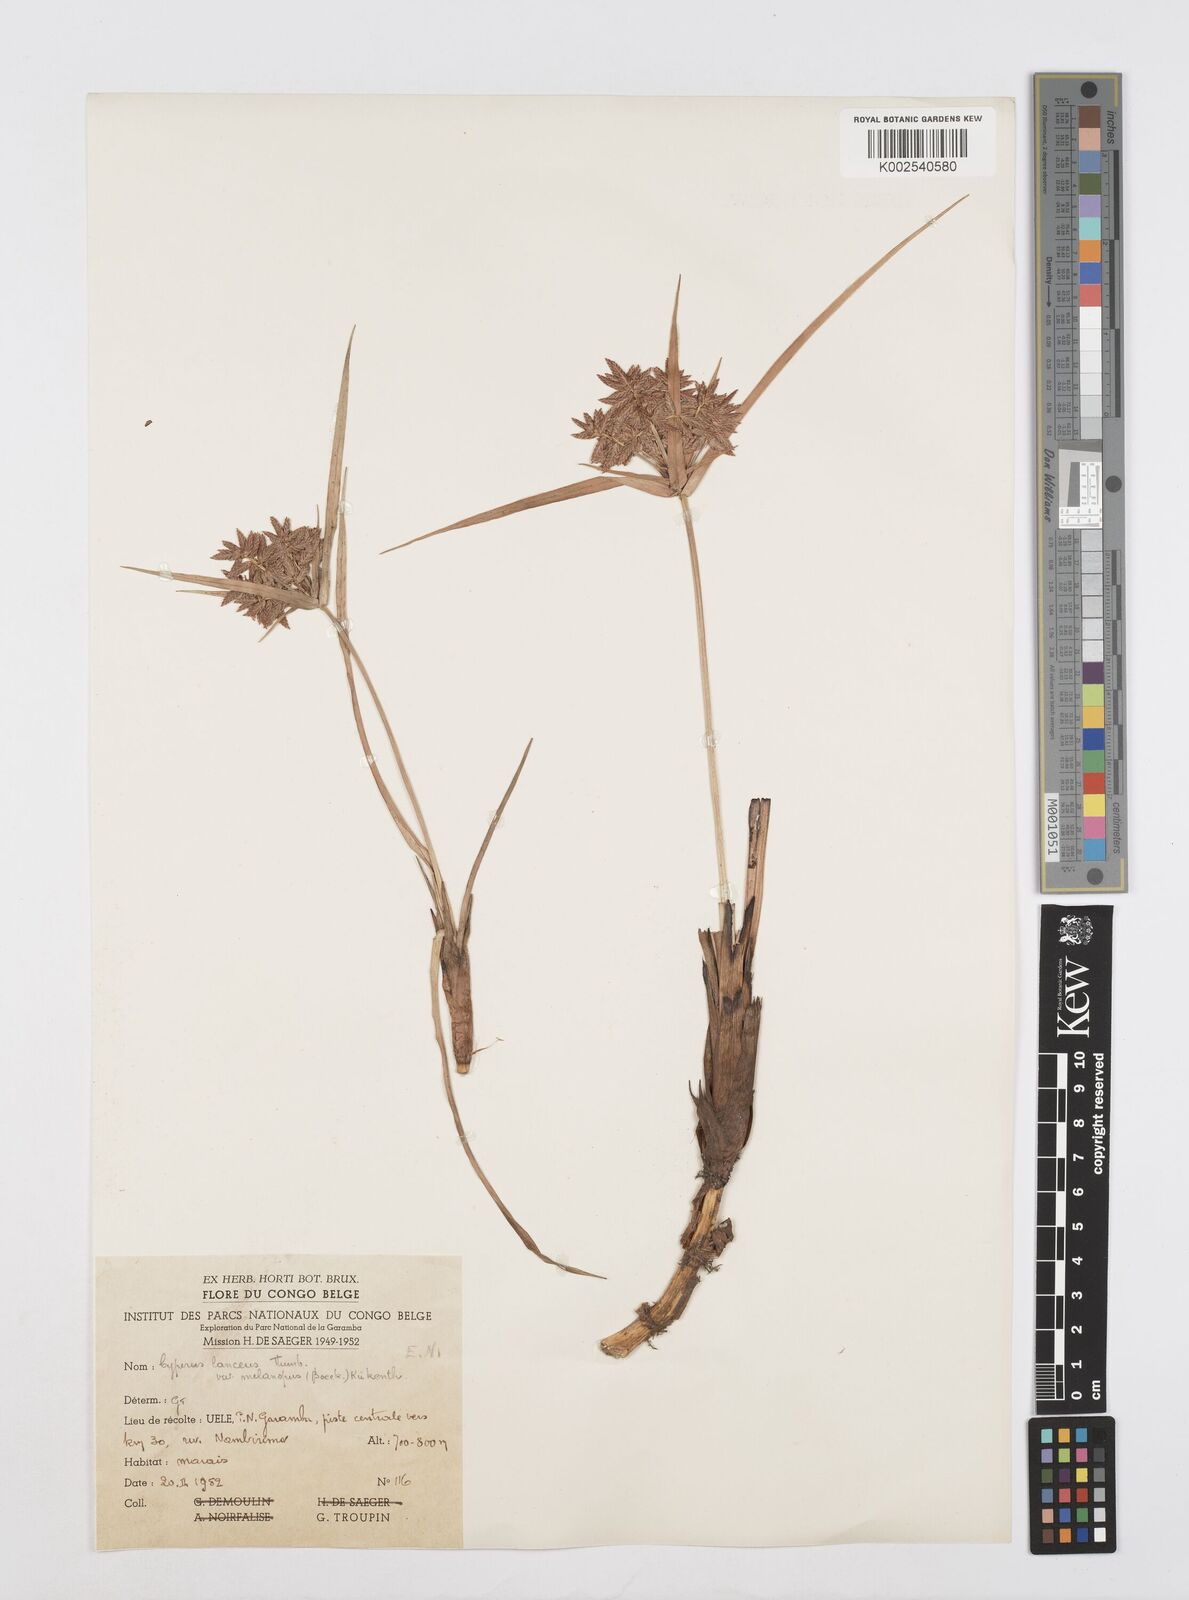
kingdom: Plantae
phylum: Tracheophyta
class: Liliopsida
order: Poales
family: Cyperaceae
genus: Cyperus
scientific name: Cyperus nitidus
